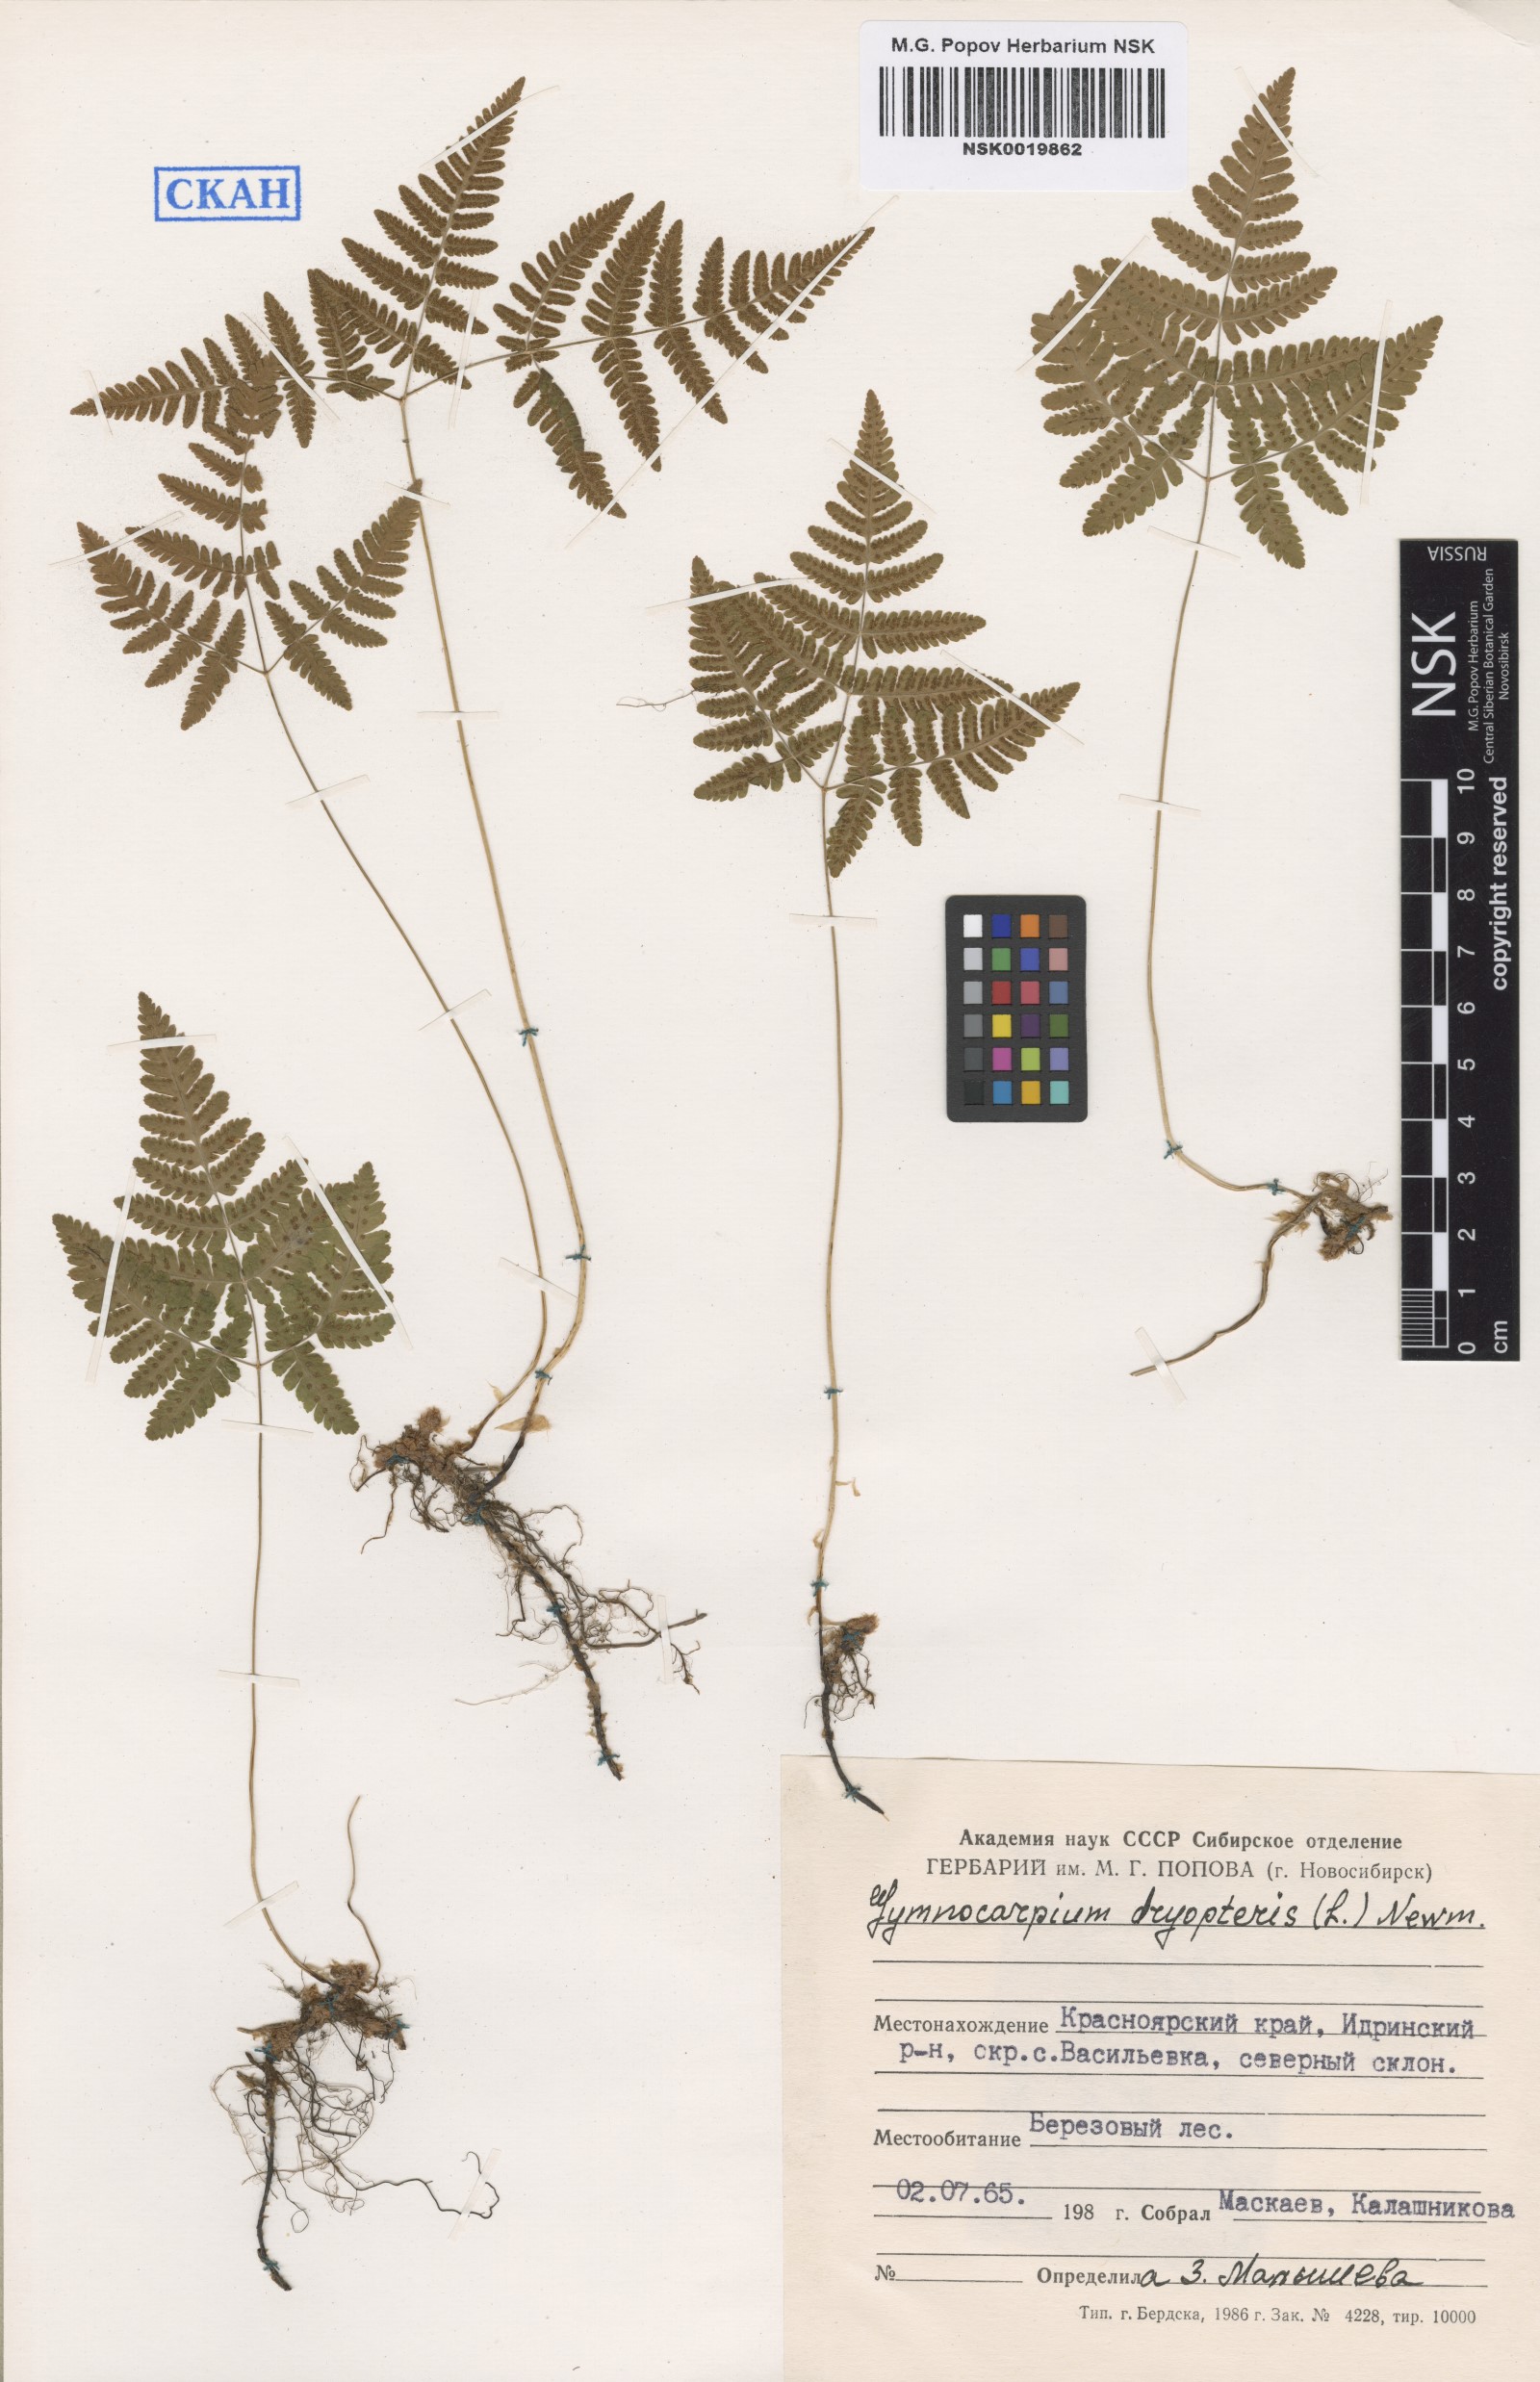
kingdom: Plantae
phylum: Tracheophyta
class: Polypodiopsida
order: Polypodiales
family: Cystopteridaceae
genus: Gymnocarpium
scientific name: Gymnocarpium dryopteris
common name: Oak fern
